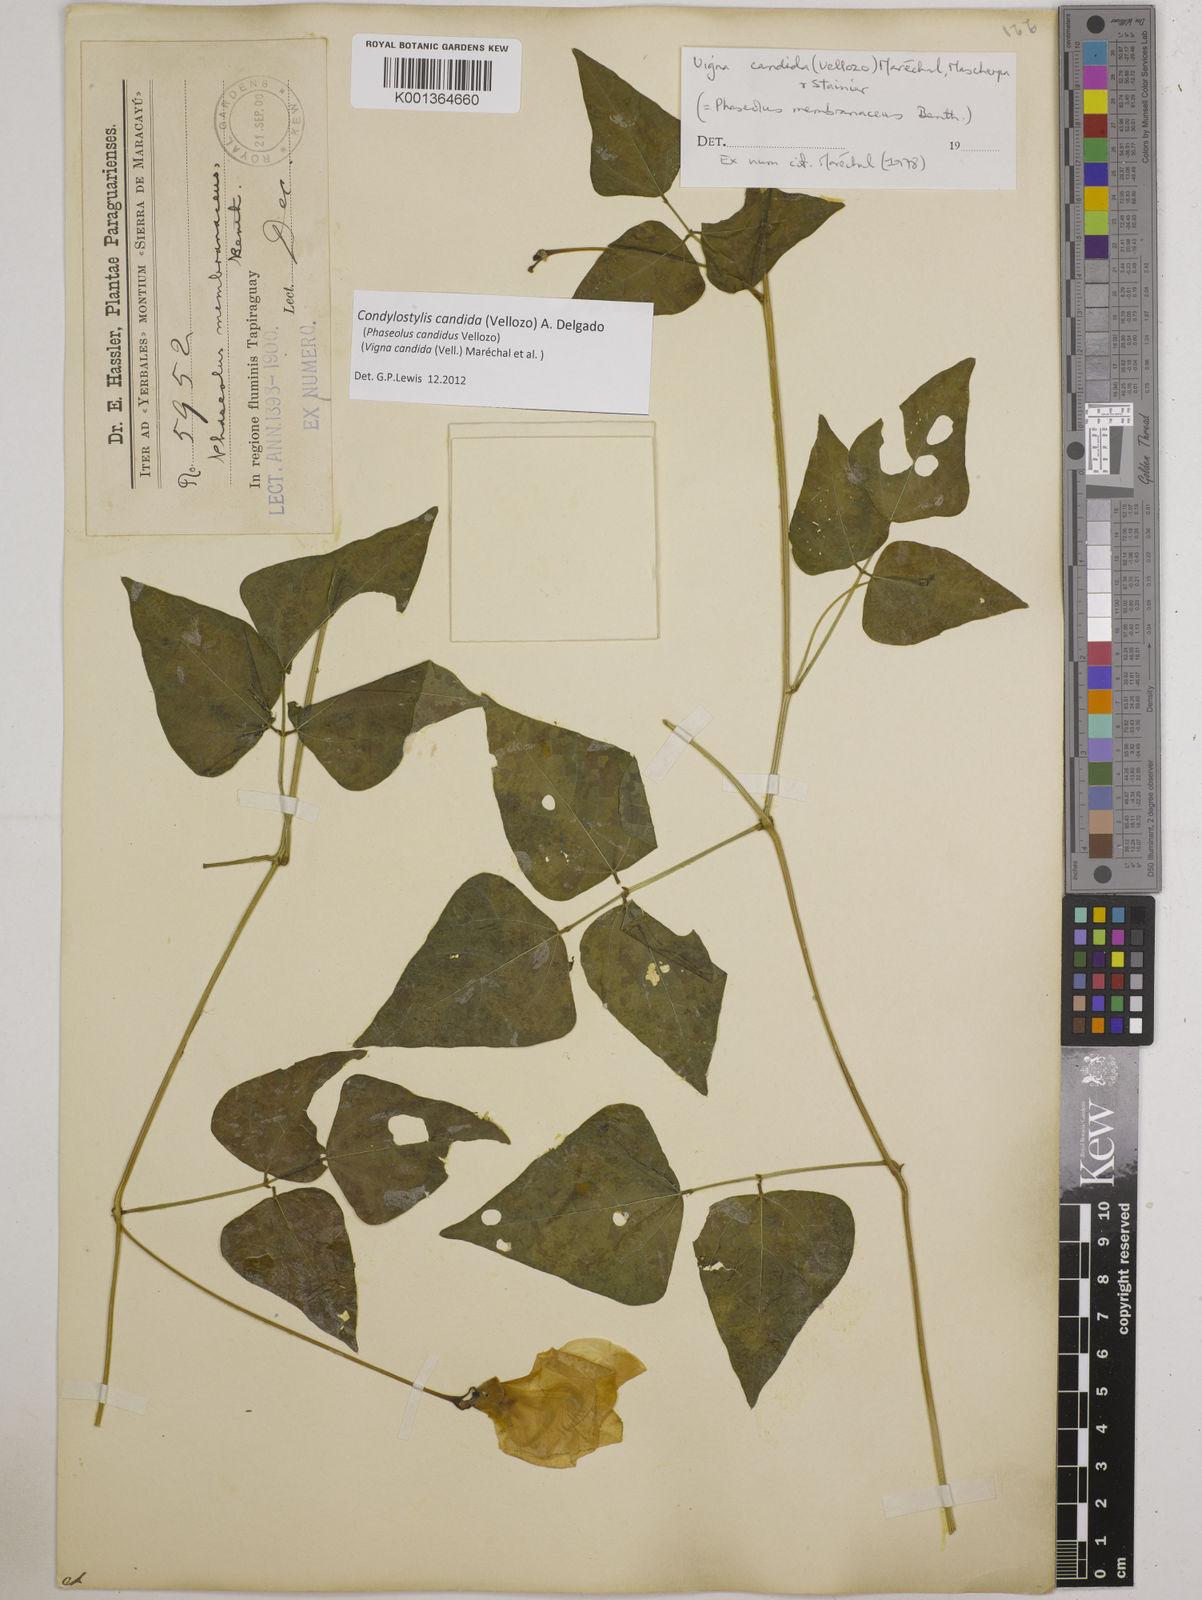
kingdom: Plantae
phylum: Tracheophyta
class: Magnoliopsida
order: Fabales
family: Fabaceae
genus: Condylostylis
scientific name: Condylostylis candida
